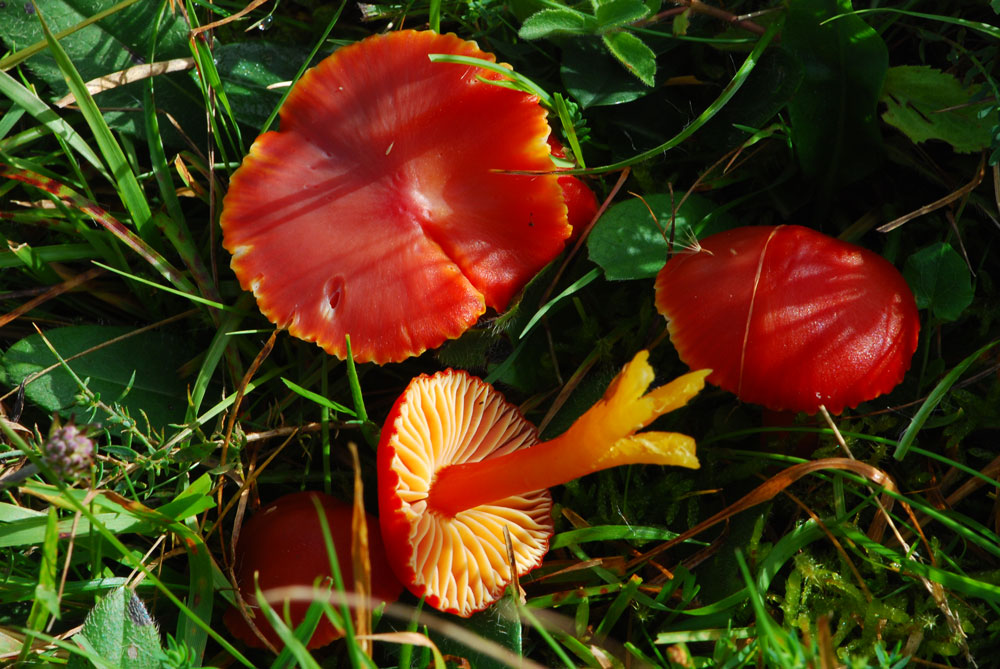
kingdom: Fungi
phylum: Basidiomycota
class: Agaricomycetes
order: Agaricales
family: Hygrophoraceae
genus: Hygrocybe
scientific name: Hygrocybe coccinea
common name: cinnober-vokshat
